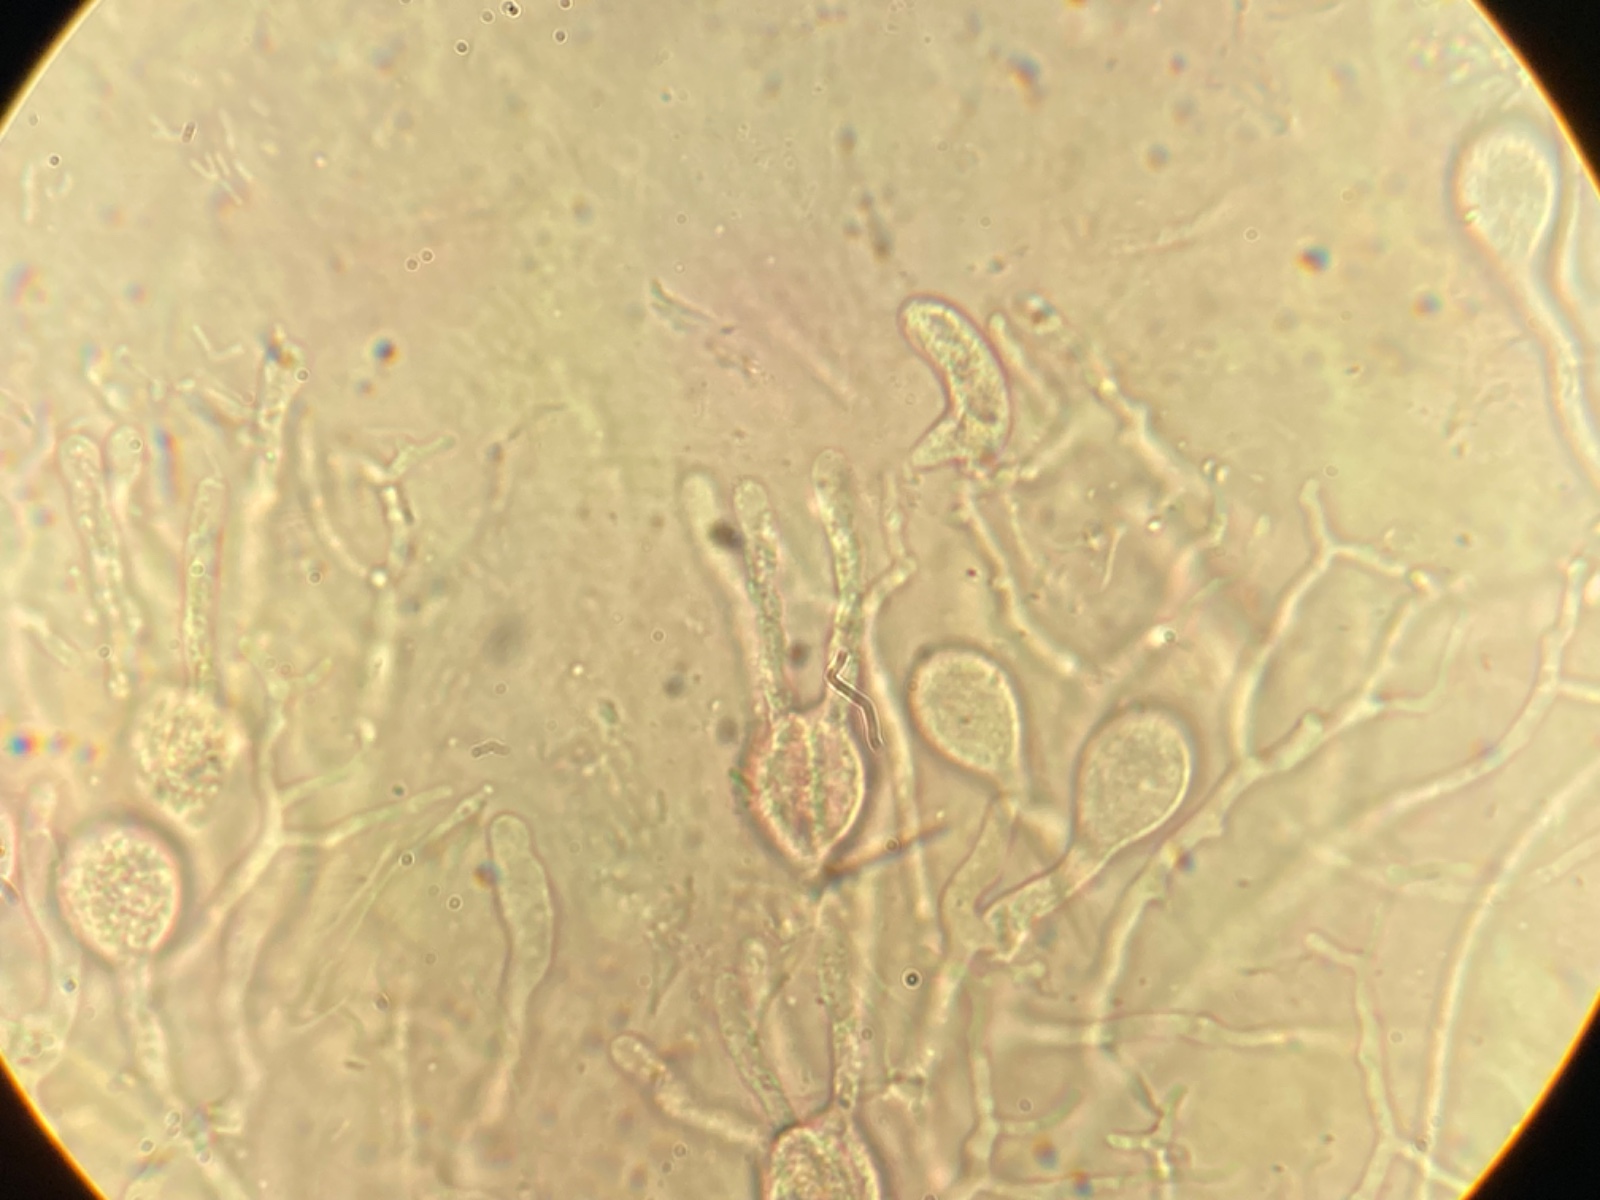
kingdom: Fungi
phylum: Basidiomycota
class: Agaricomycetes
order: Auriculariales
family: Hyaloriaceae
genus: Myxarium
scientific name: Myxarium
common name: bævretop
